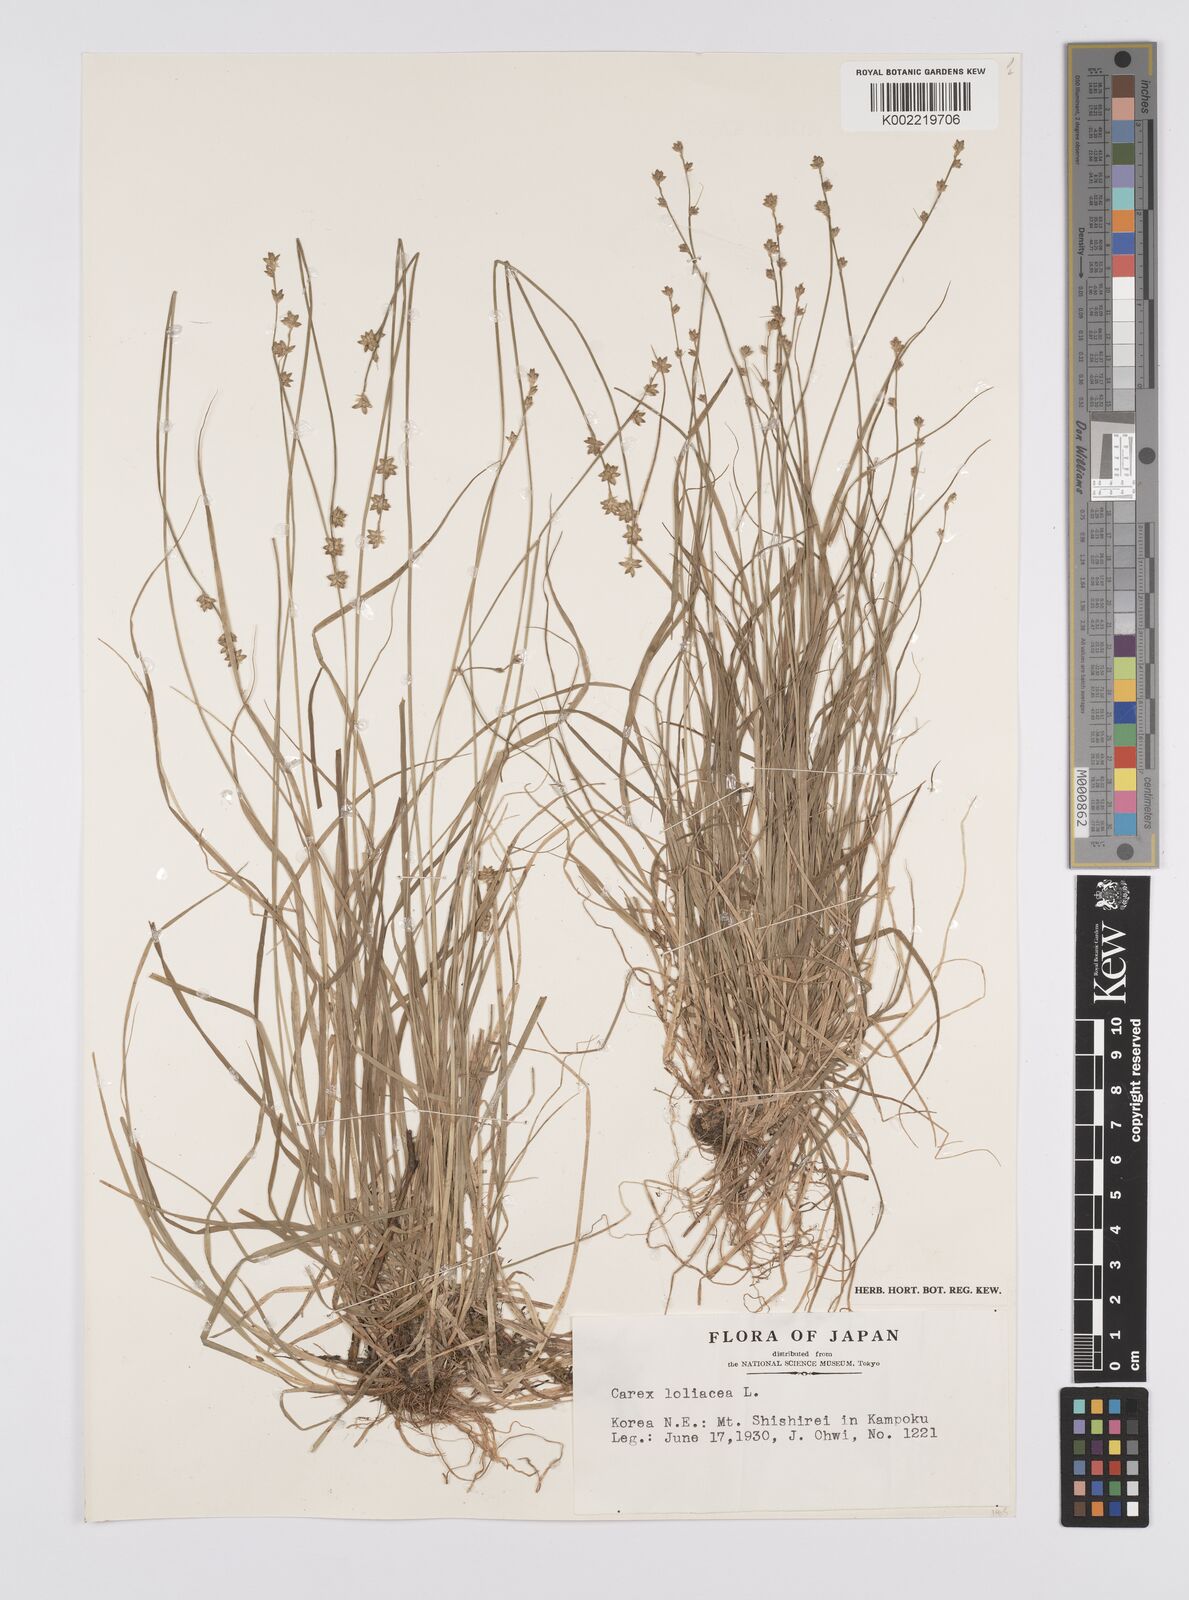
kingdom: Plantae
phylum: Tracheophyta
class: Liliopsida
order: Poales
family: Cyperaceae
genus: Carex
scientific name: Carex loliacea
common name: Ryegrass sedge
